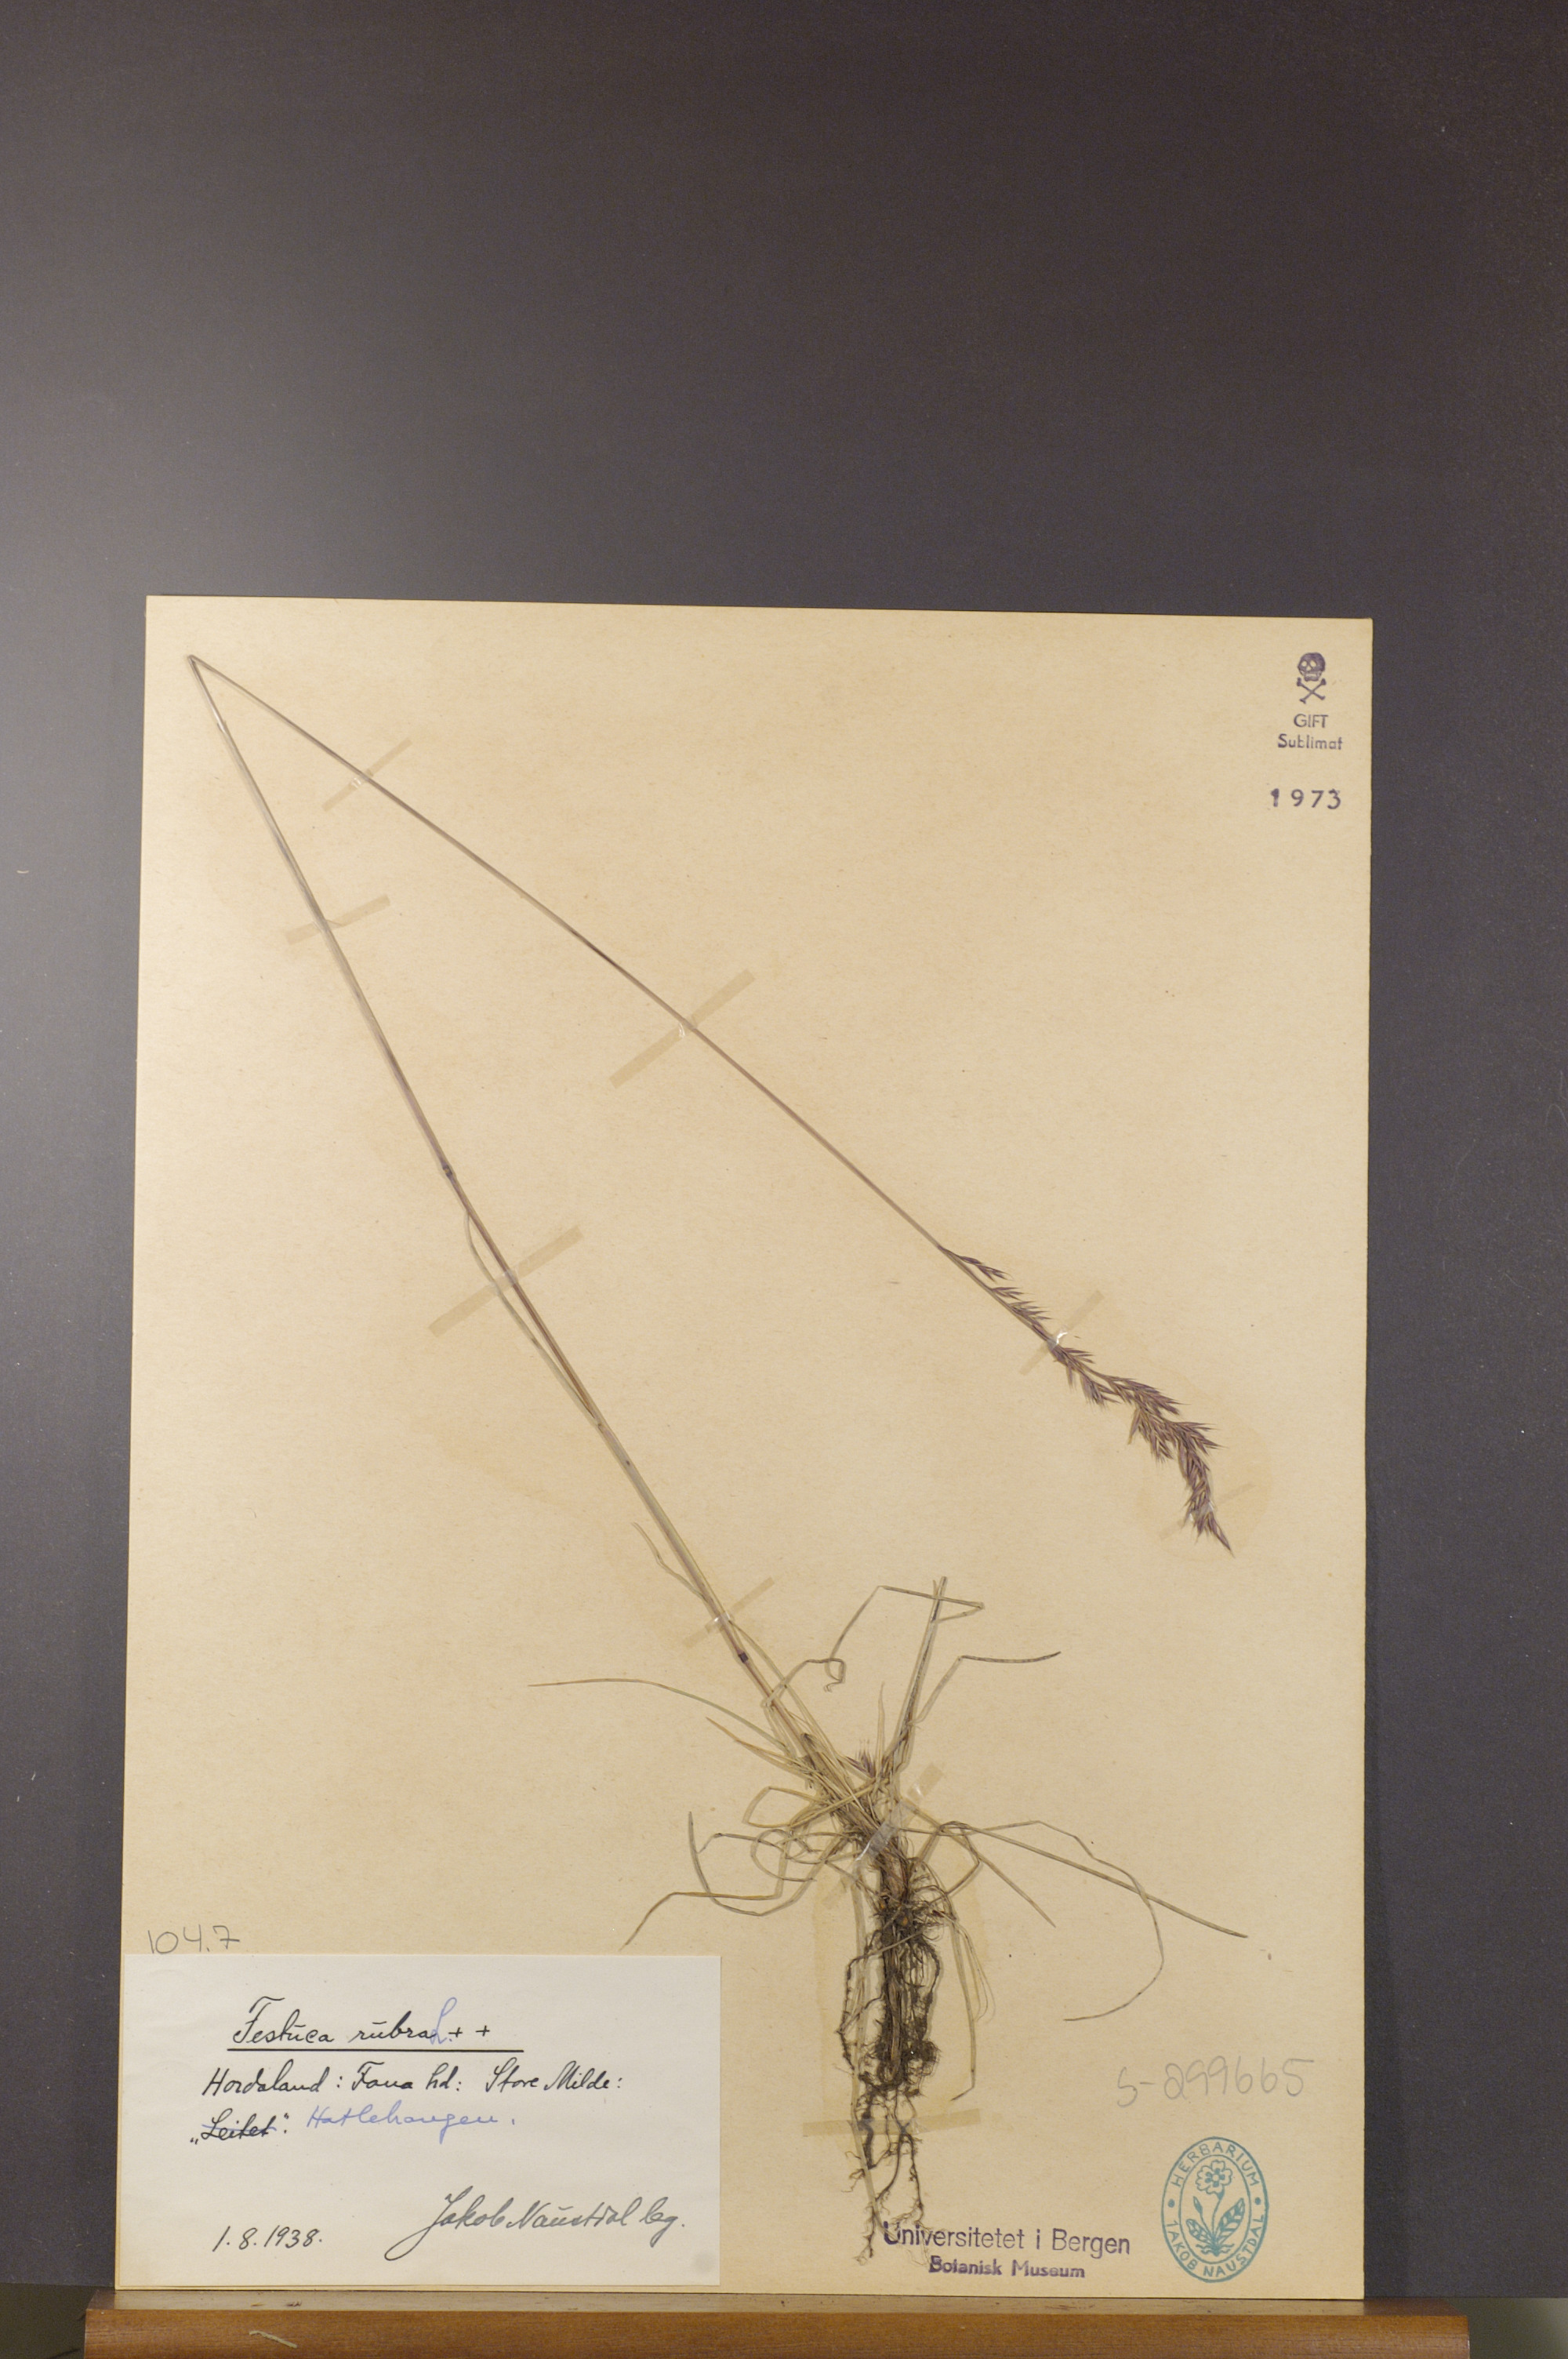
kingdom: Plantae
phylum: Tracheophyta
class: Liliopsida
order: Poales
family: Poaceae
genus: Festuca
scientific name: Festuca rubra
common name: Red fescue
